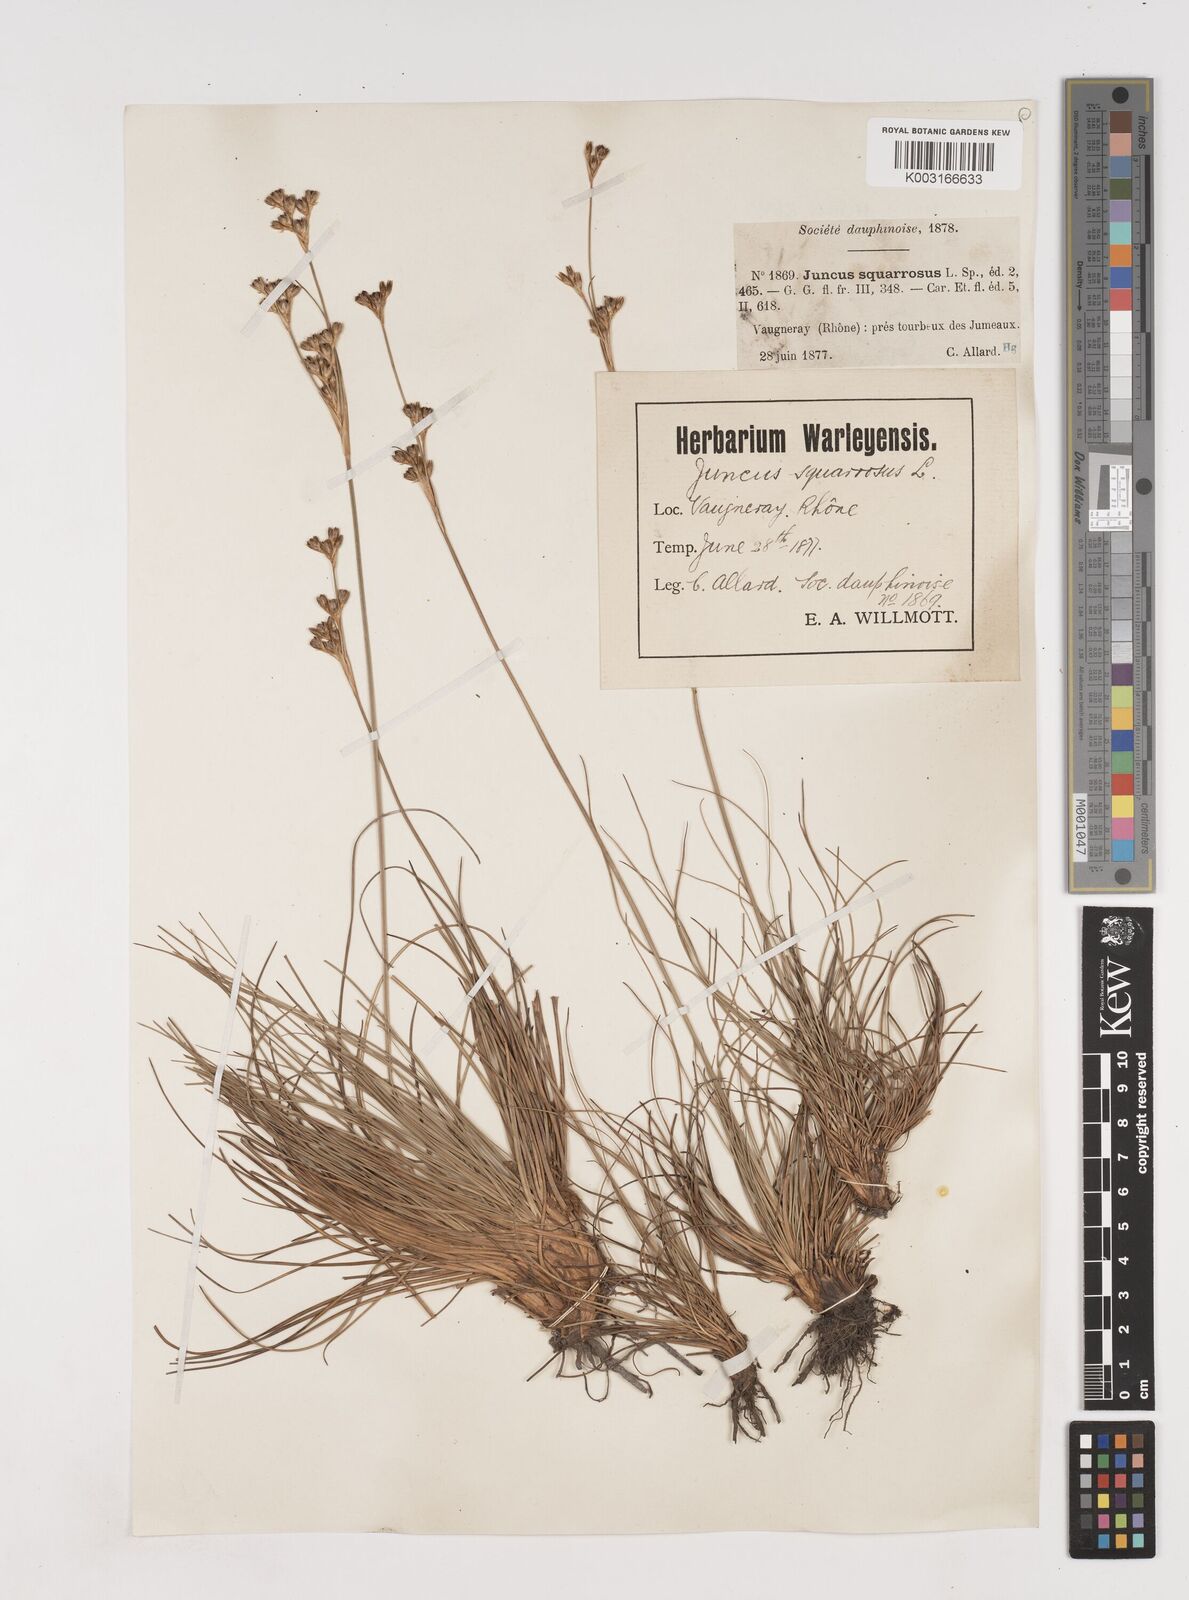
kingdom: Plantae
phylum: Tracheophyta
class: Liliopsida
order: Poales
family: Juncaceae
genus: Juncus
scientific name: Juncus squarrosus
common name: Heath rush
